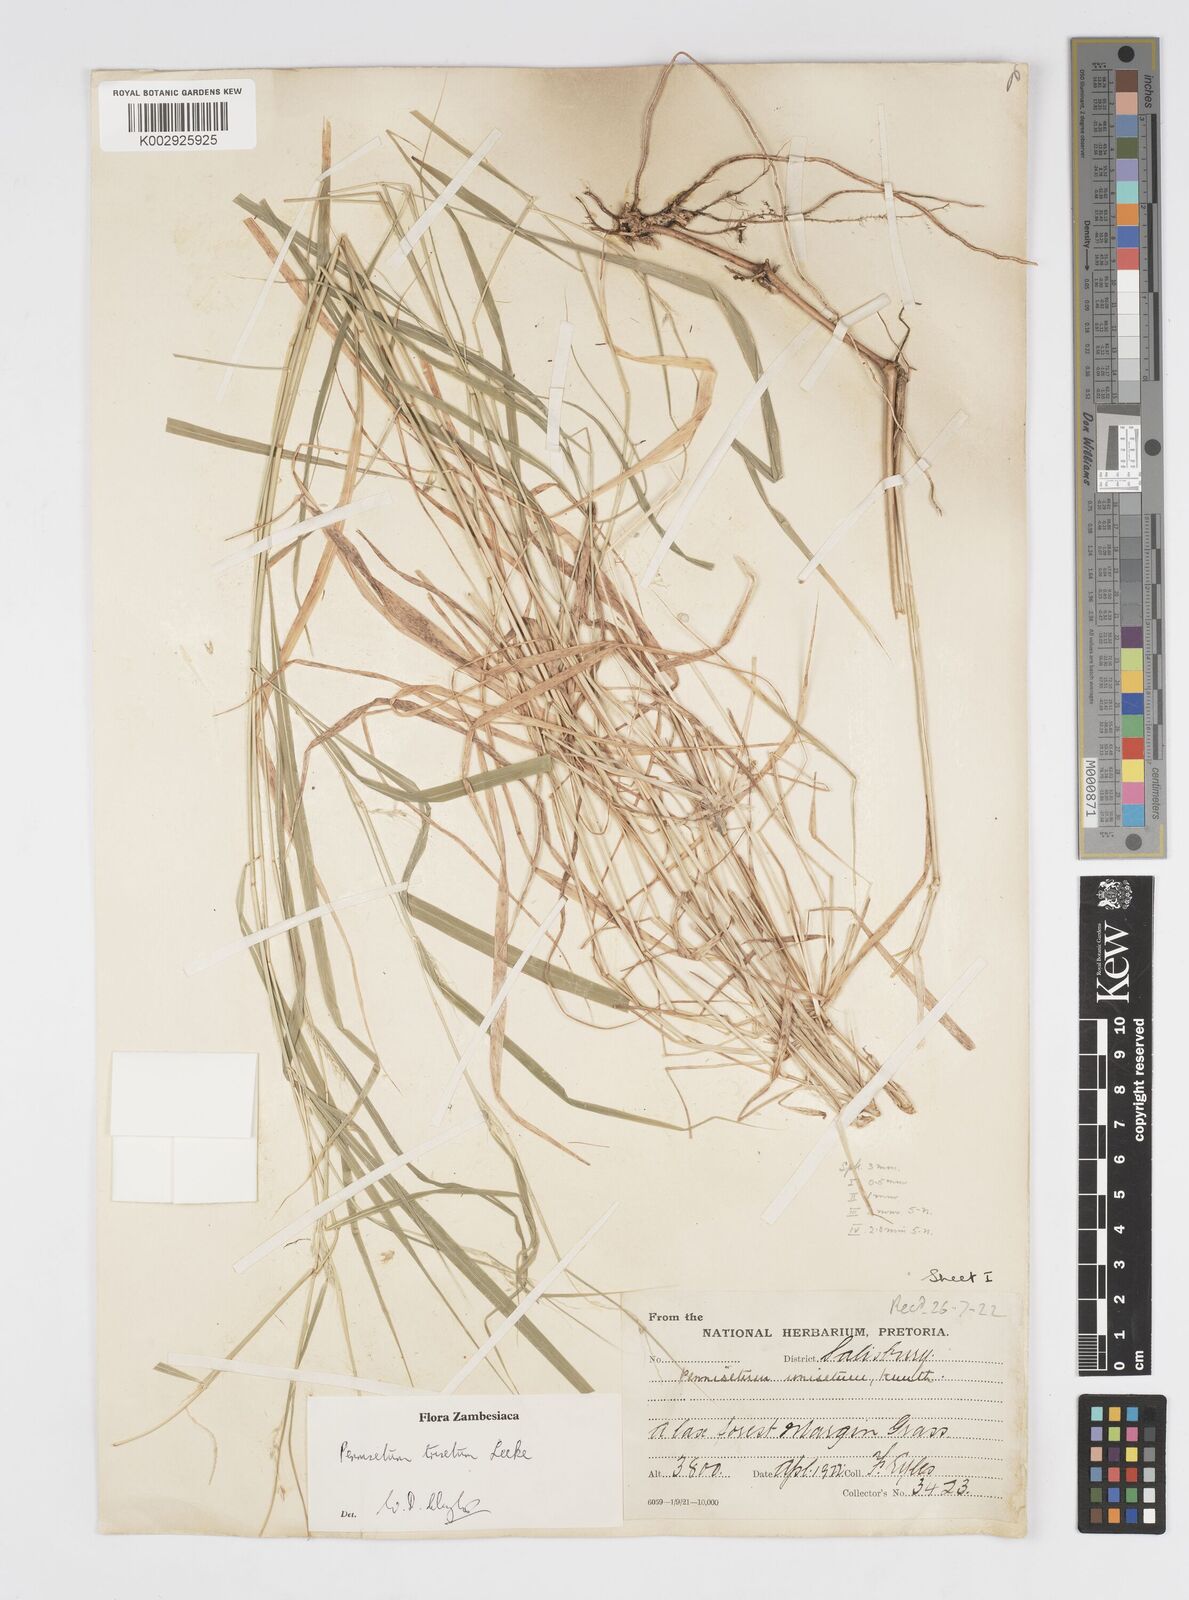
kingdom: Plantae
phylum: Tracheophyta
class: Liliopsida
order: Poales
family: Poaceae
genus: Cenchrus
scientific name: Cenchrus trisetus
